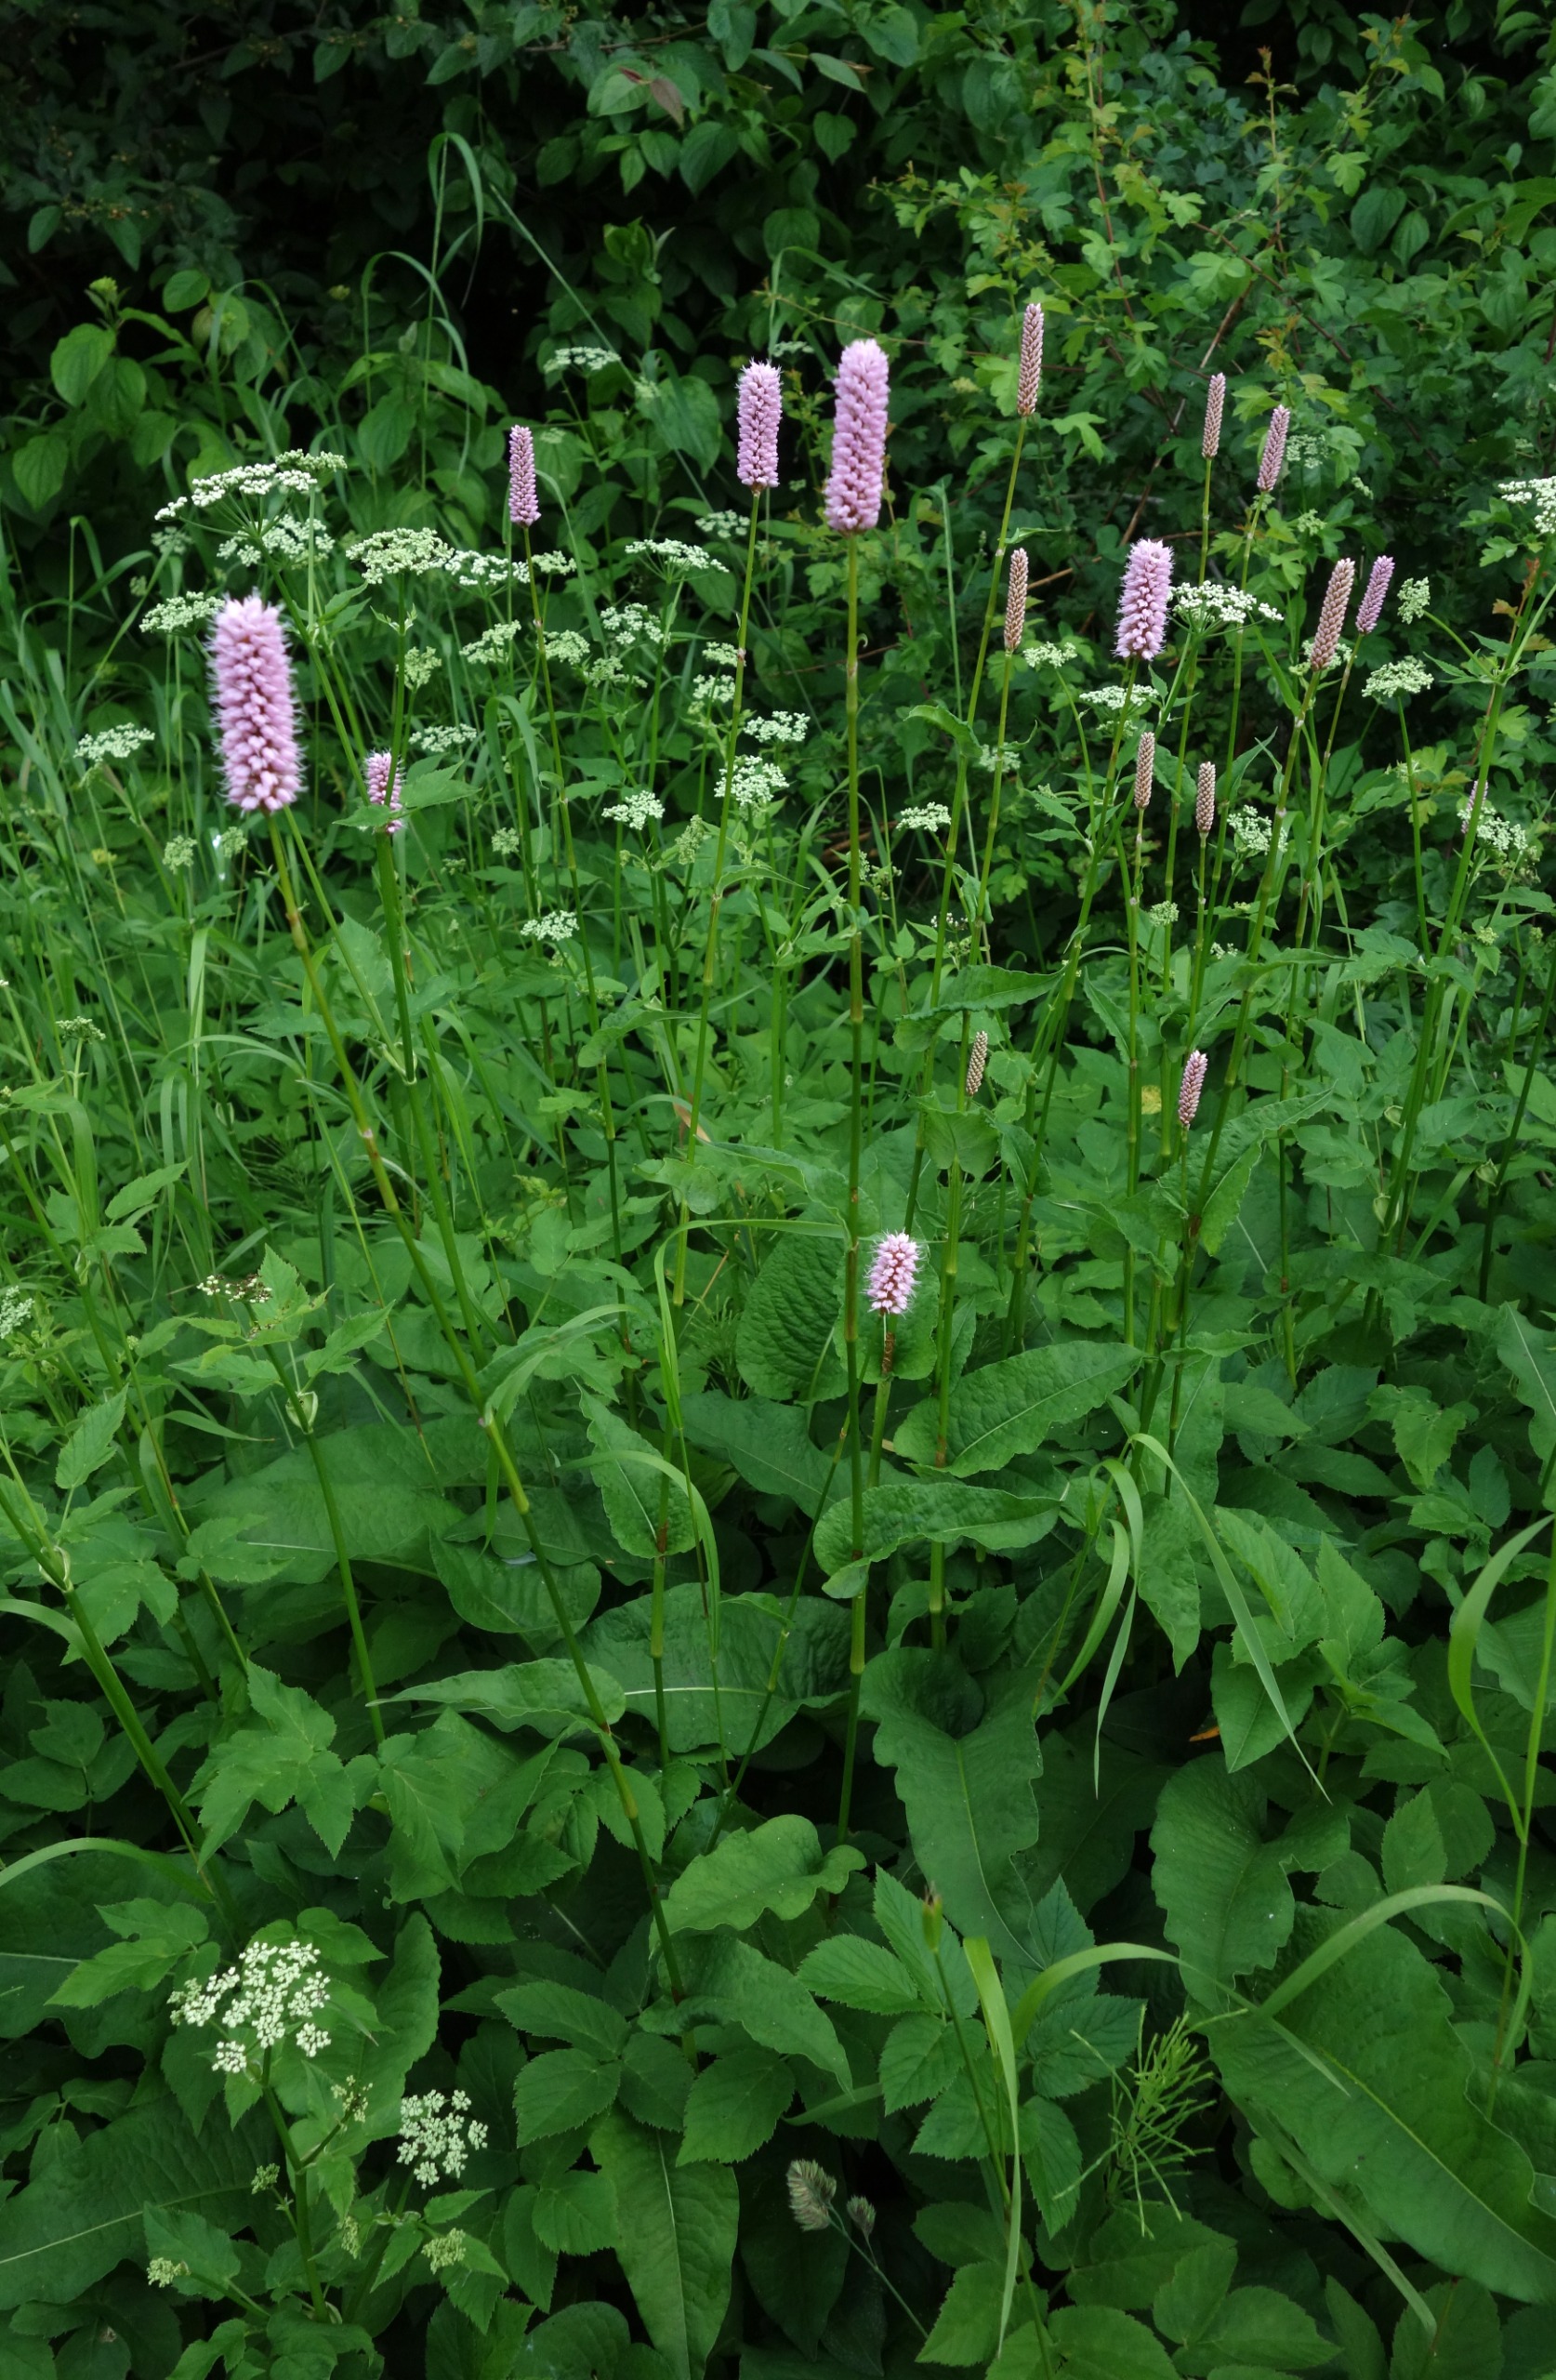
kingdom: Plantae
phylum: Tracheophyta
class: Magnoliopsida
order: Caryophyllales
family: Polygonaceae
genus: Bistorta
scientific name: Bistorta officinalis
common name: Slangeurt
